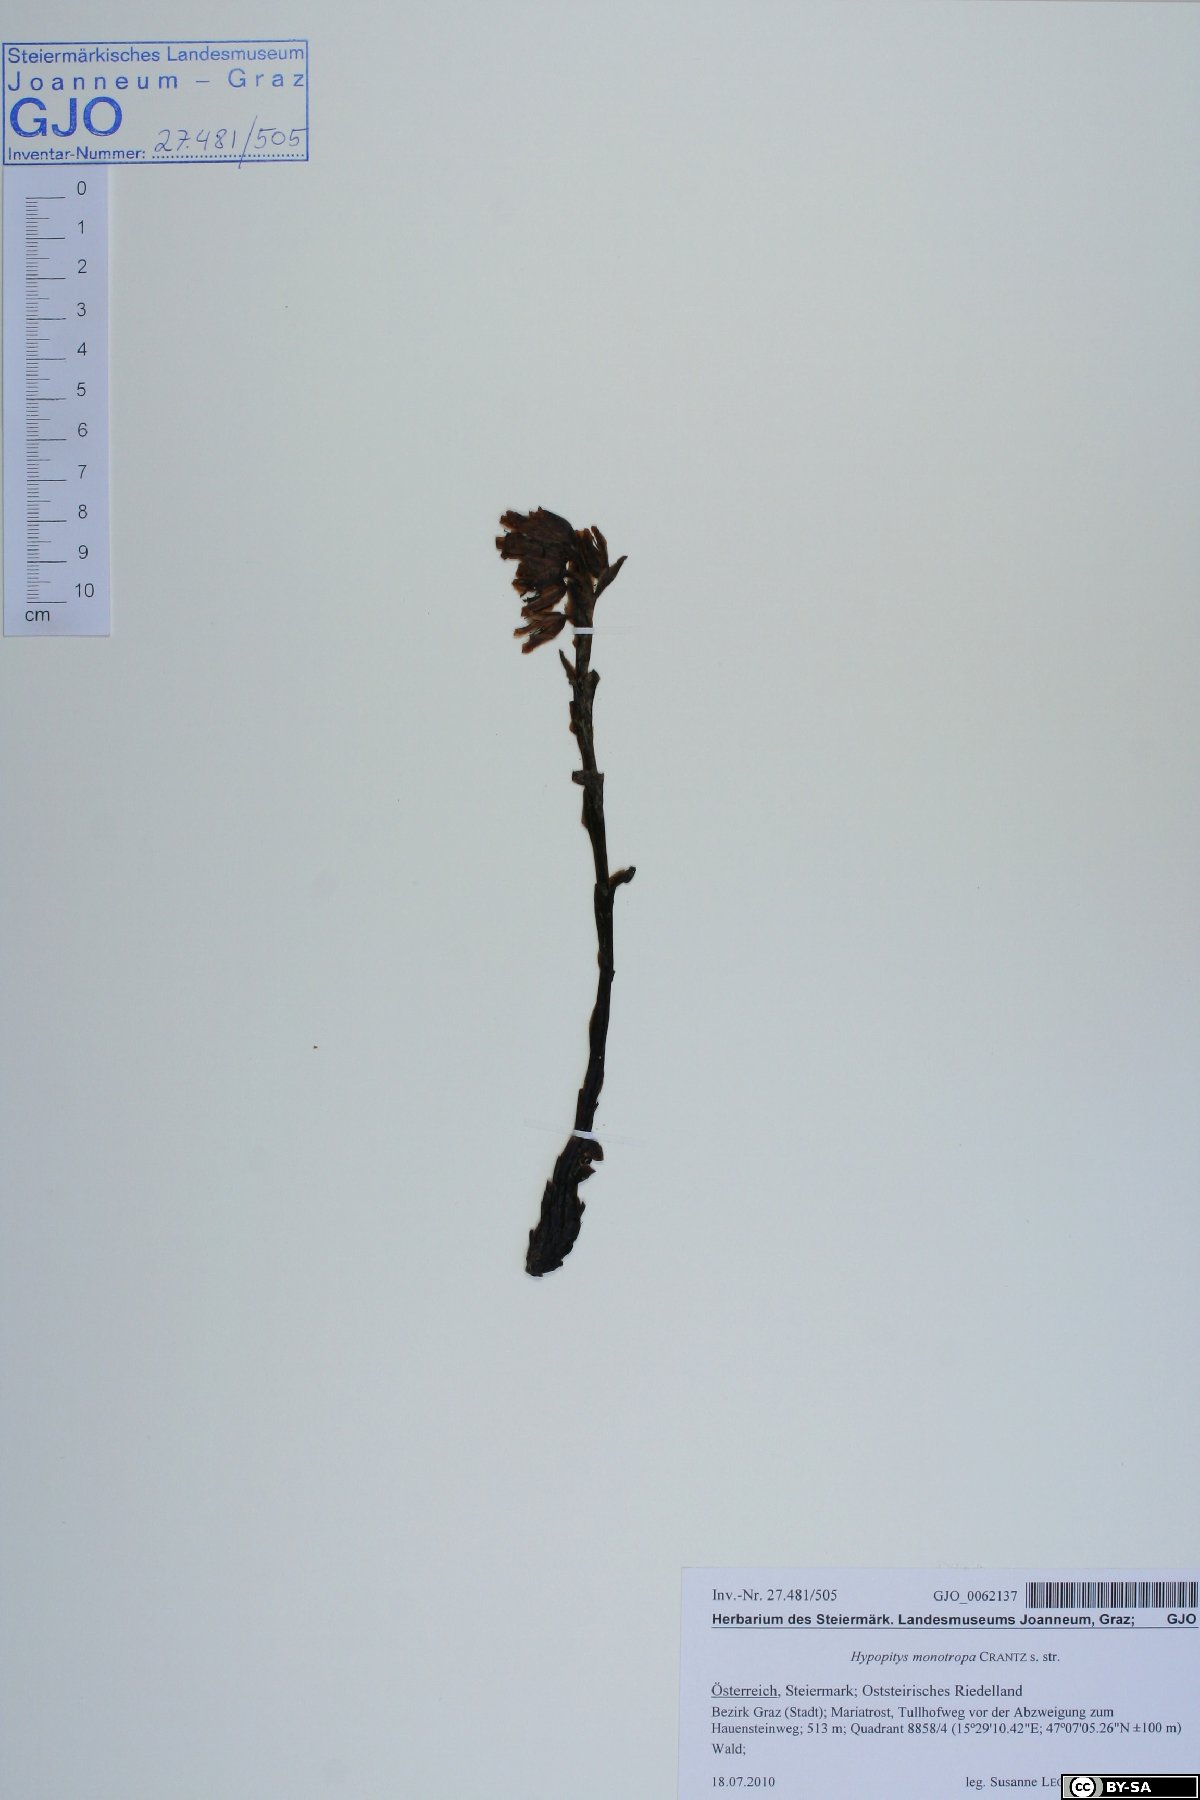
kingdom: Plantae
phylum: Tracheophyta
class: Magnoliopsida
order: Ericales
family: Ericaceae
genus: Hypopitys
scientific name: Hypopitys monotropa
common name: Yellow bird's-nest
